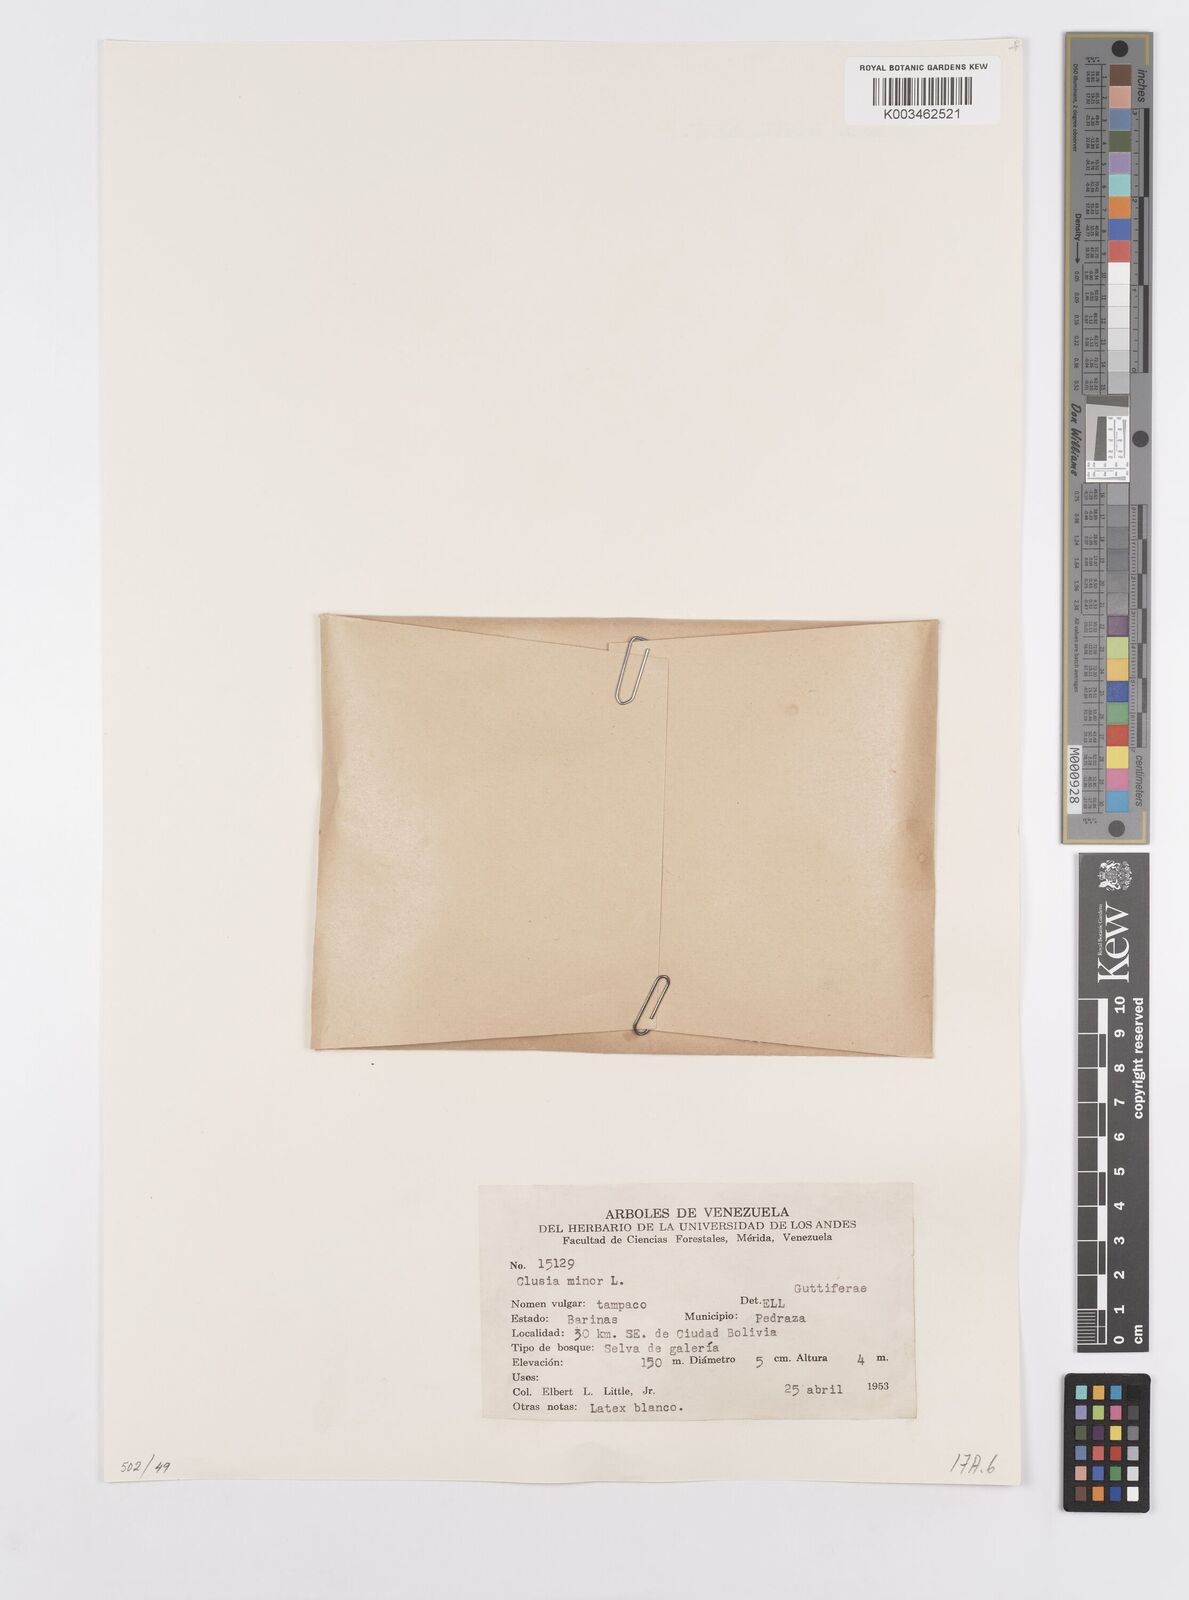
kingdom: Plantae
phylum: Tracheophyta
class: Magnoliopsida
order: Malpighiales
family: Clusiaceae
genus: Clusia
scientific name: Clusia minor
